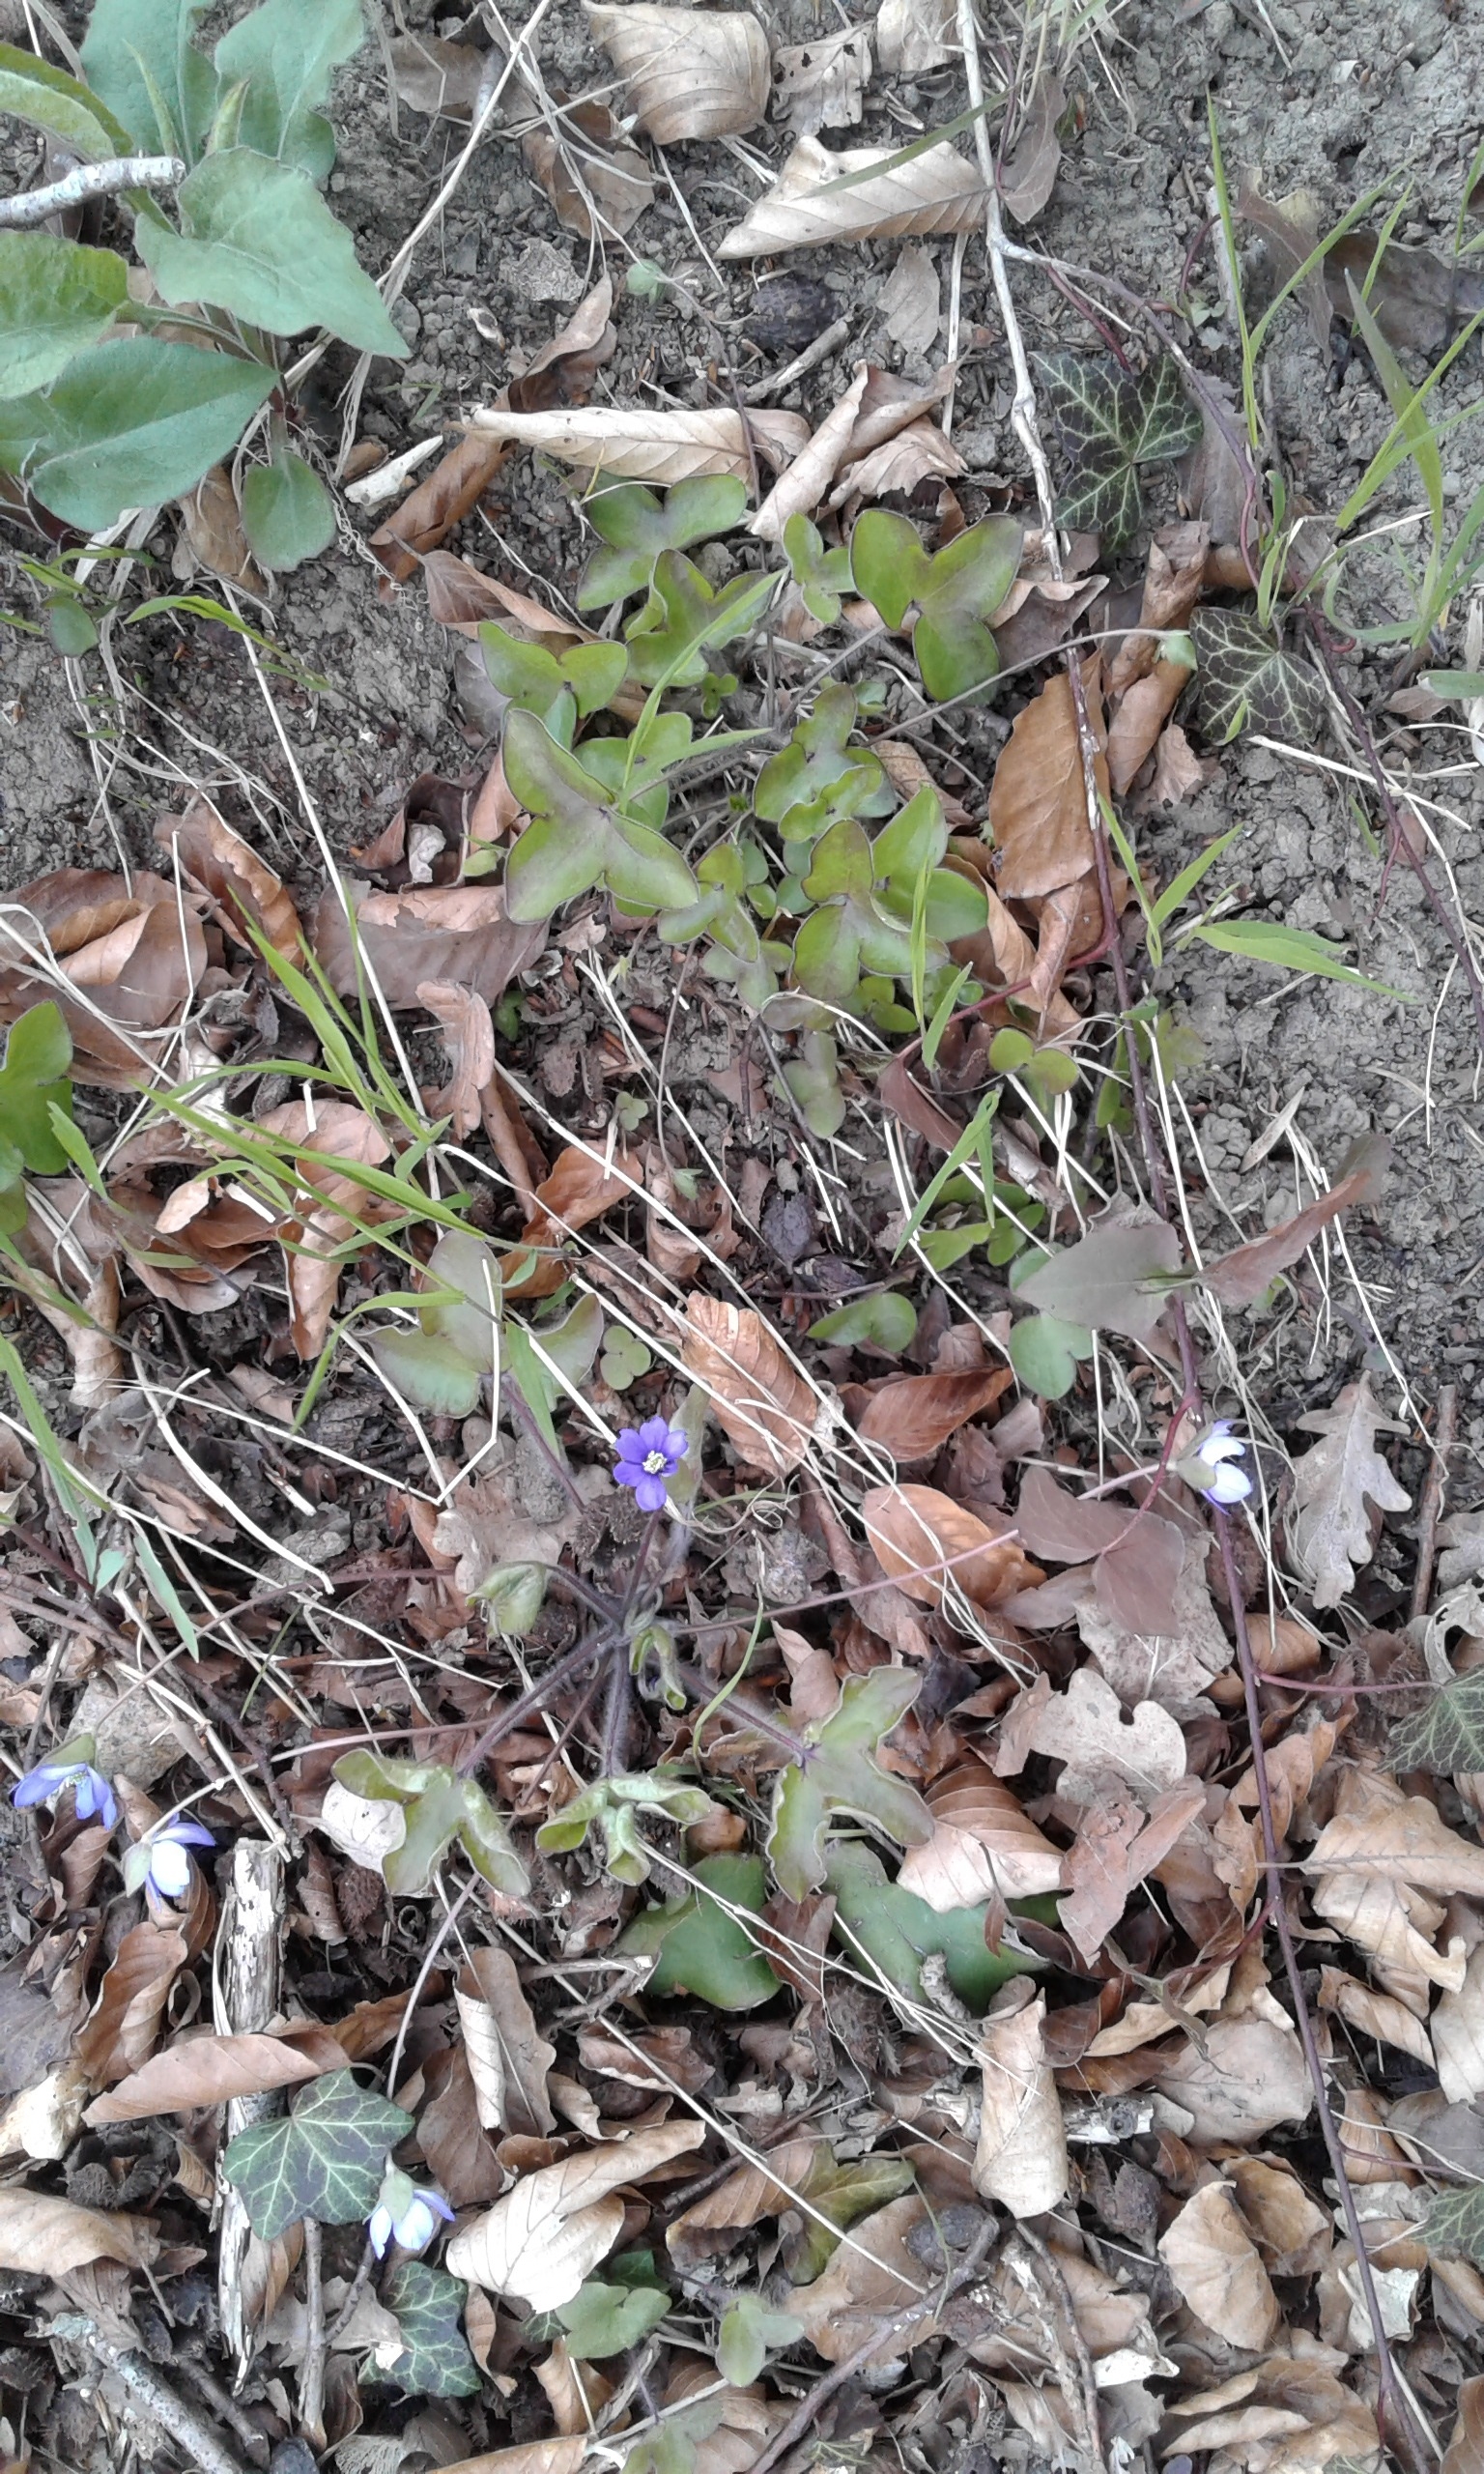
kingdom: Plantae
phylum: Tracheophyta
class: Magnoliopsida
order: Ranunculales
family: Ranunculaceae
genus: Hepatica
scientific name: Hepatica nobilis
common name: Blå anemone
